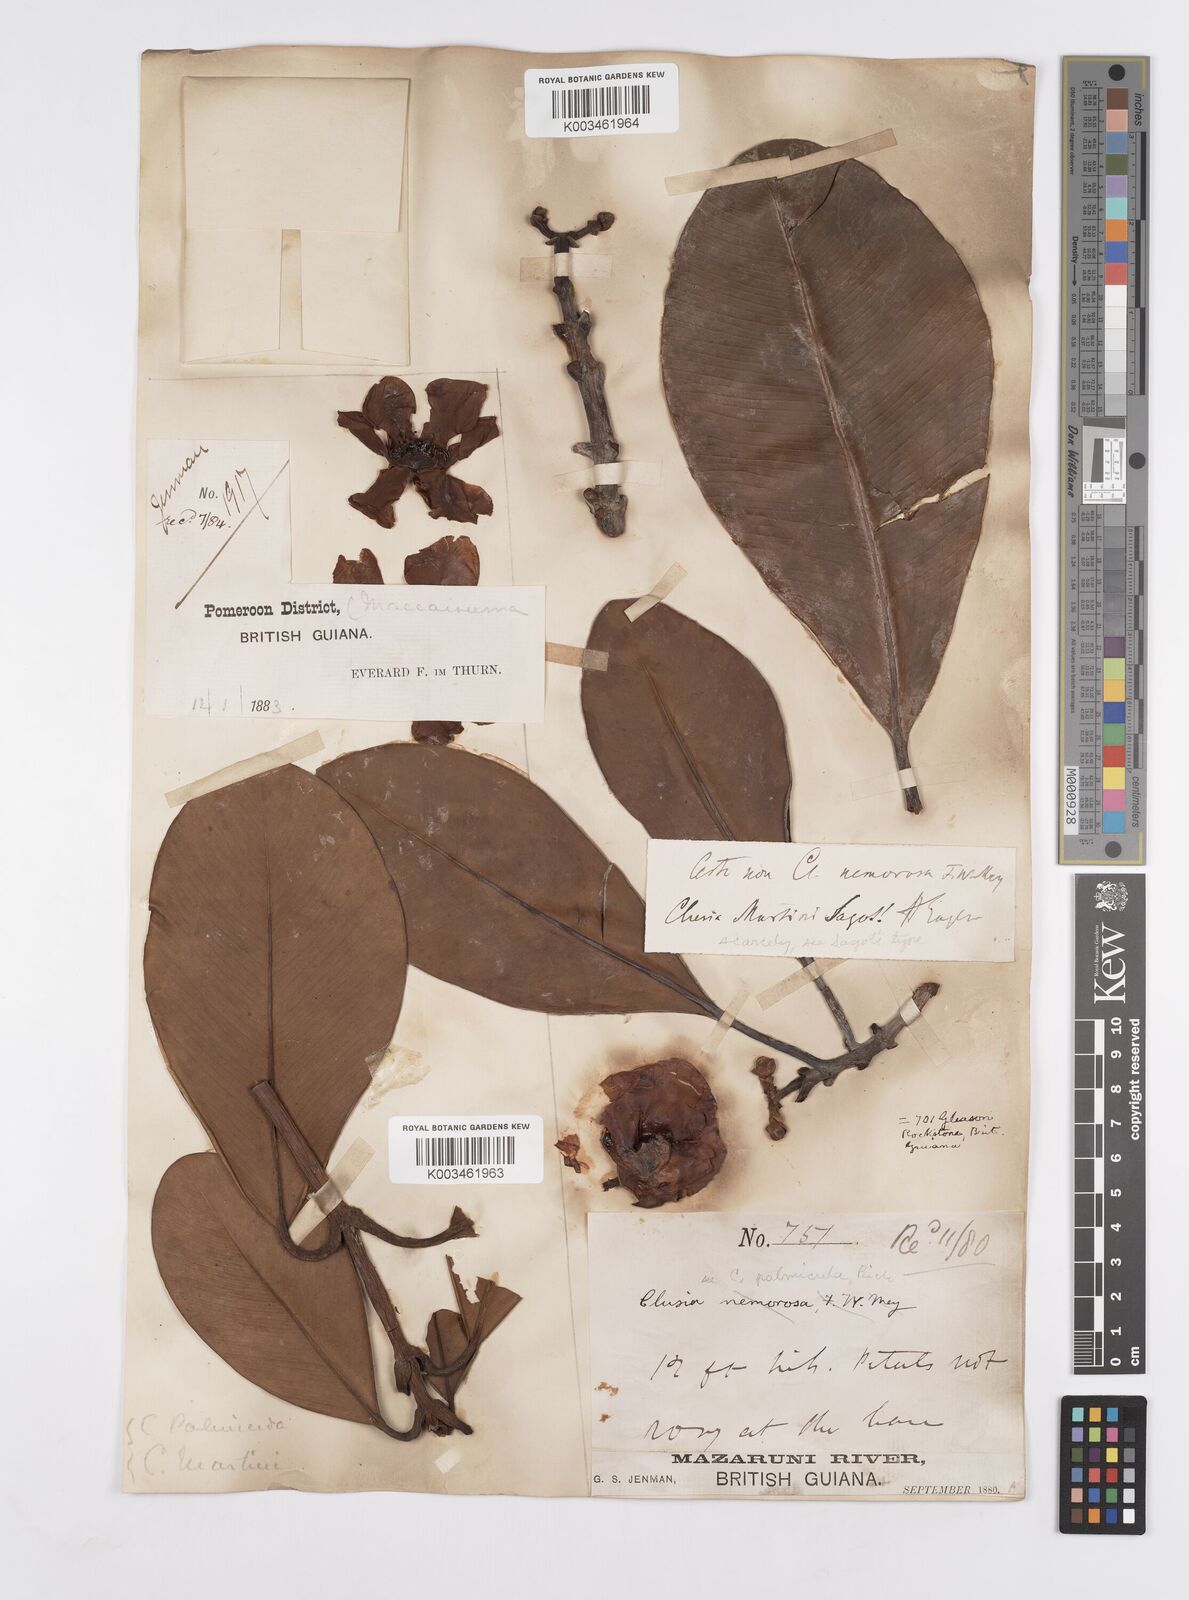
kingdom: Plantae
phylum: Tracheophyta
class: Magnoliopsida
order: Malpighiales
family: Clusiaceae
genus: Clusia
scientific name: Clusia palmicida
